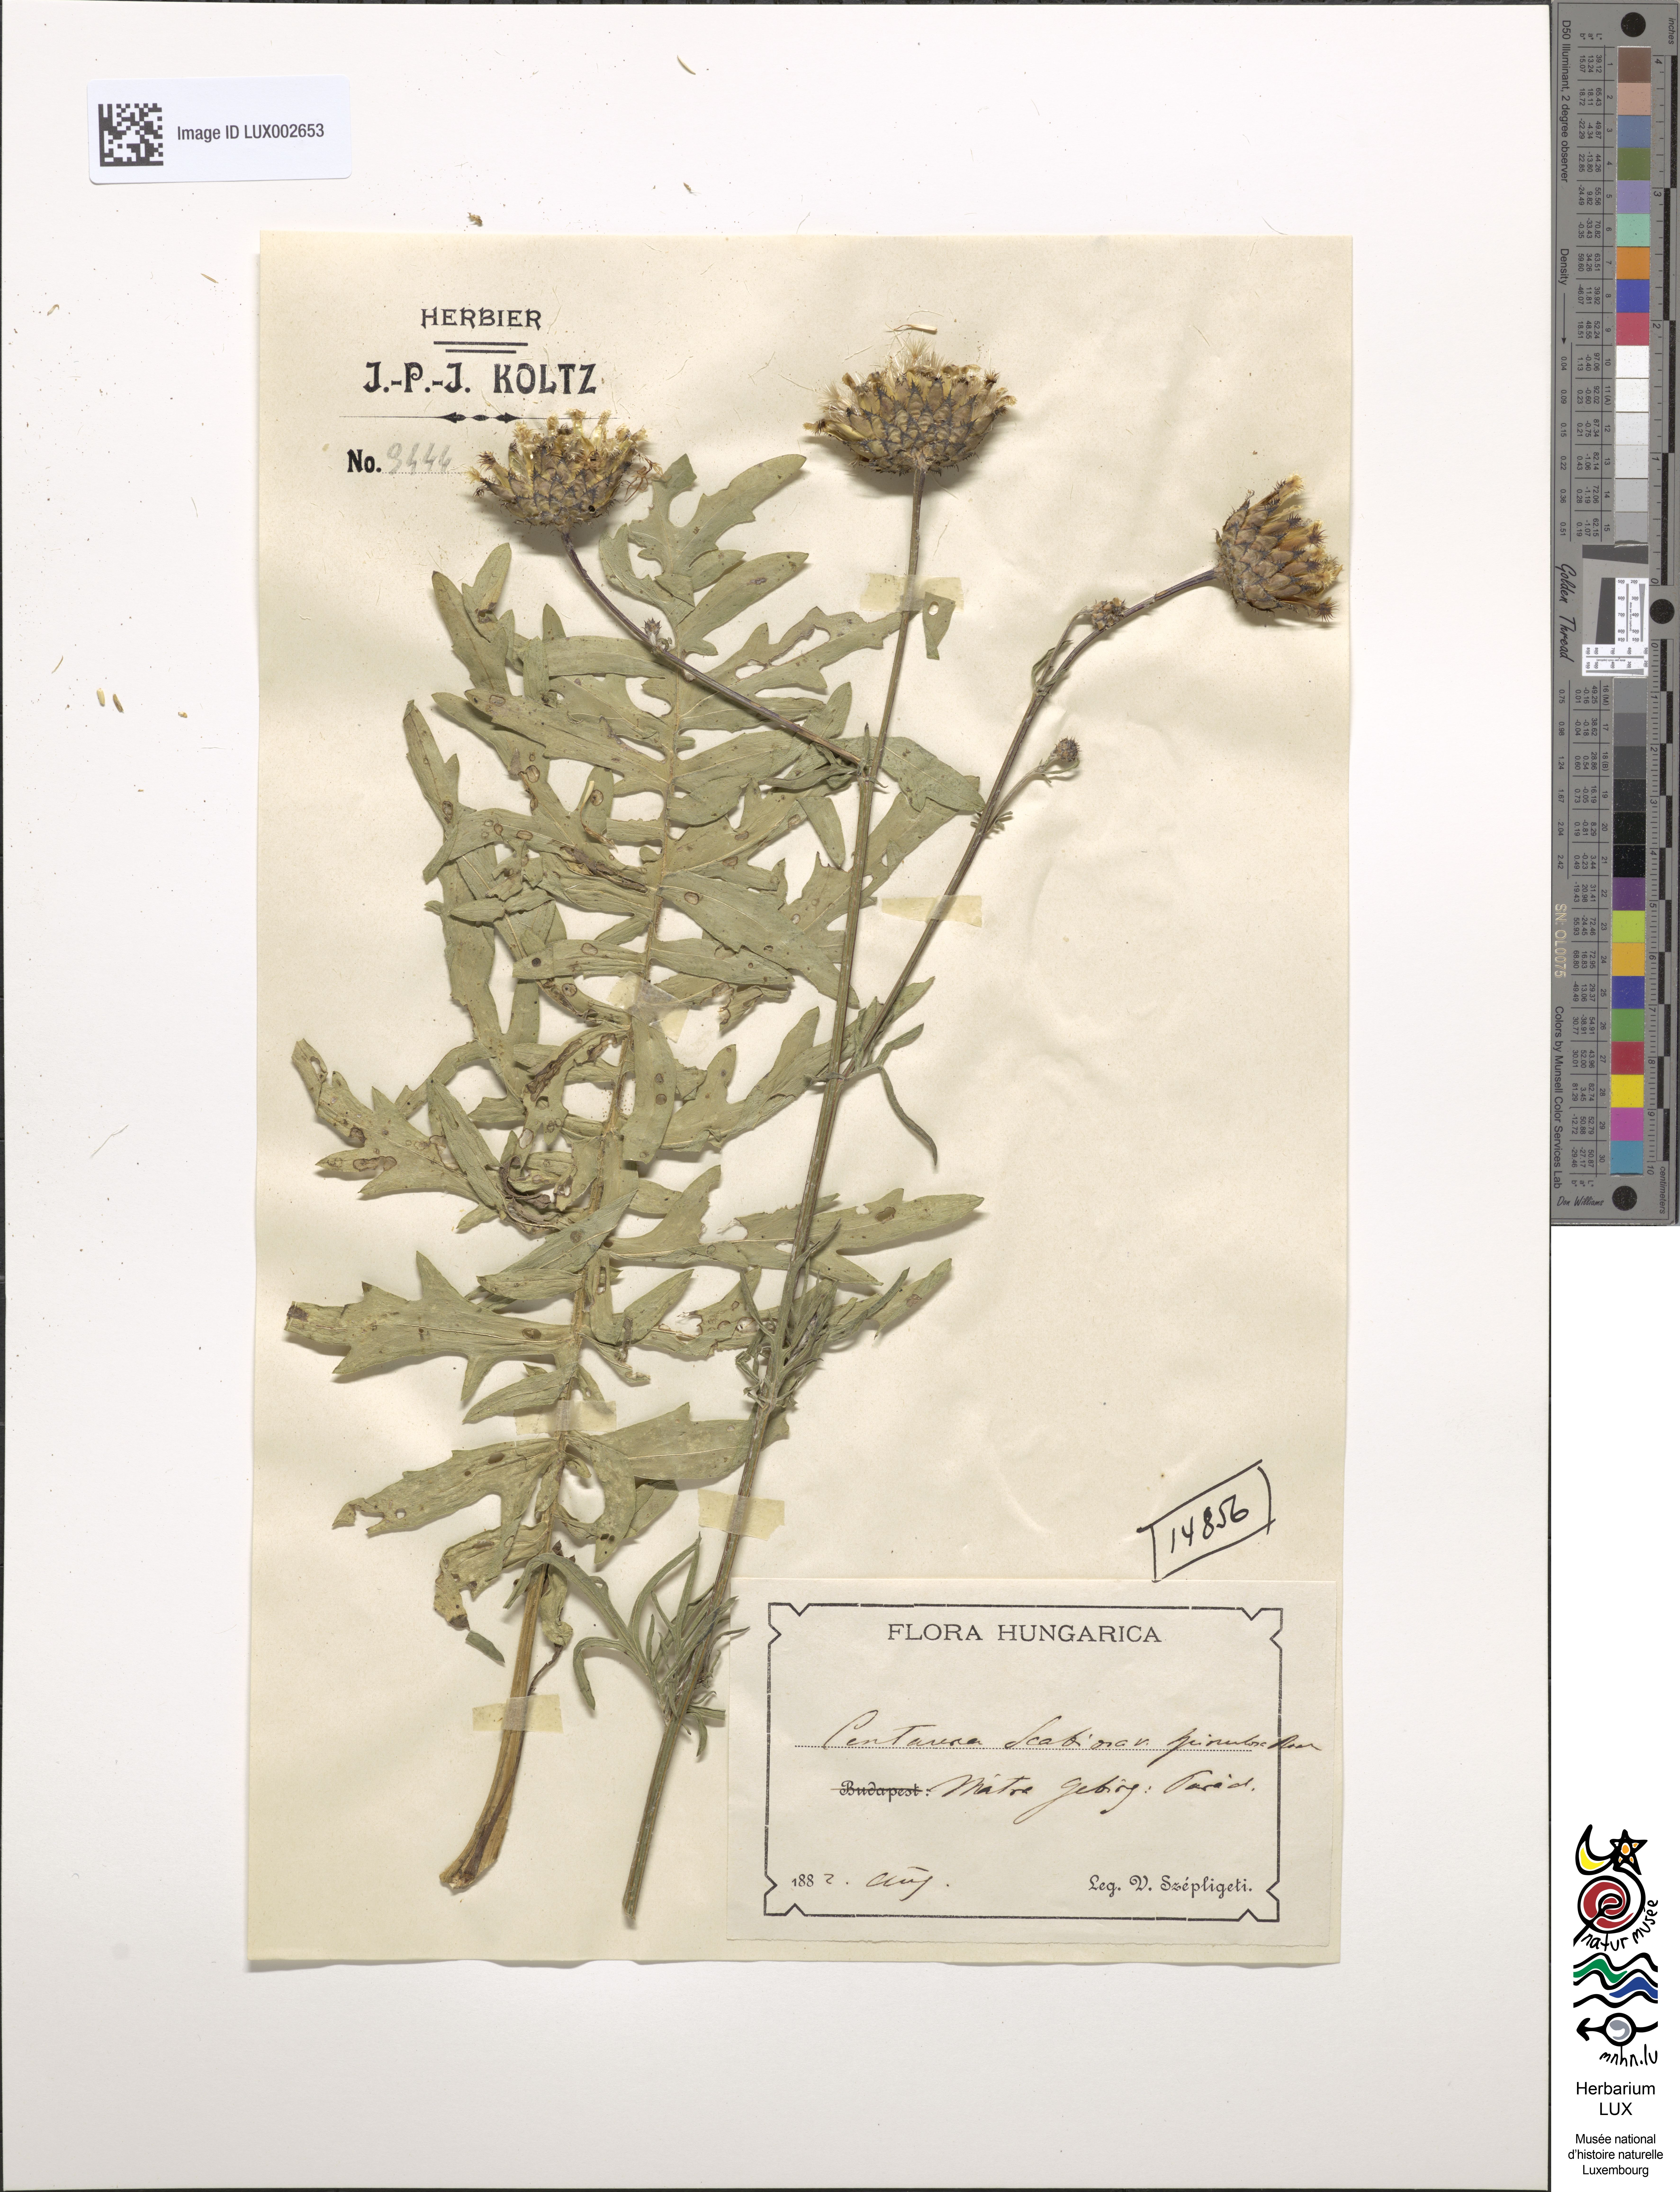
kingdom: Plantae
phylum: Tracheophyta
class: Magnoliopsida
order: Asterales
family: Asteraceae
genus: Centaurea
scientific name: Centaurea apiculata
